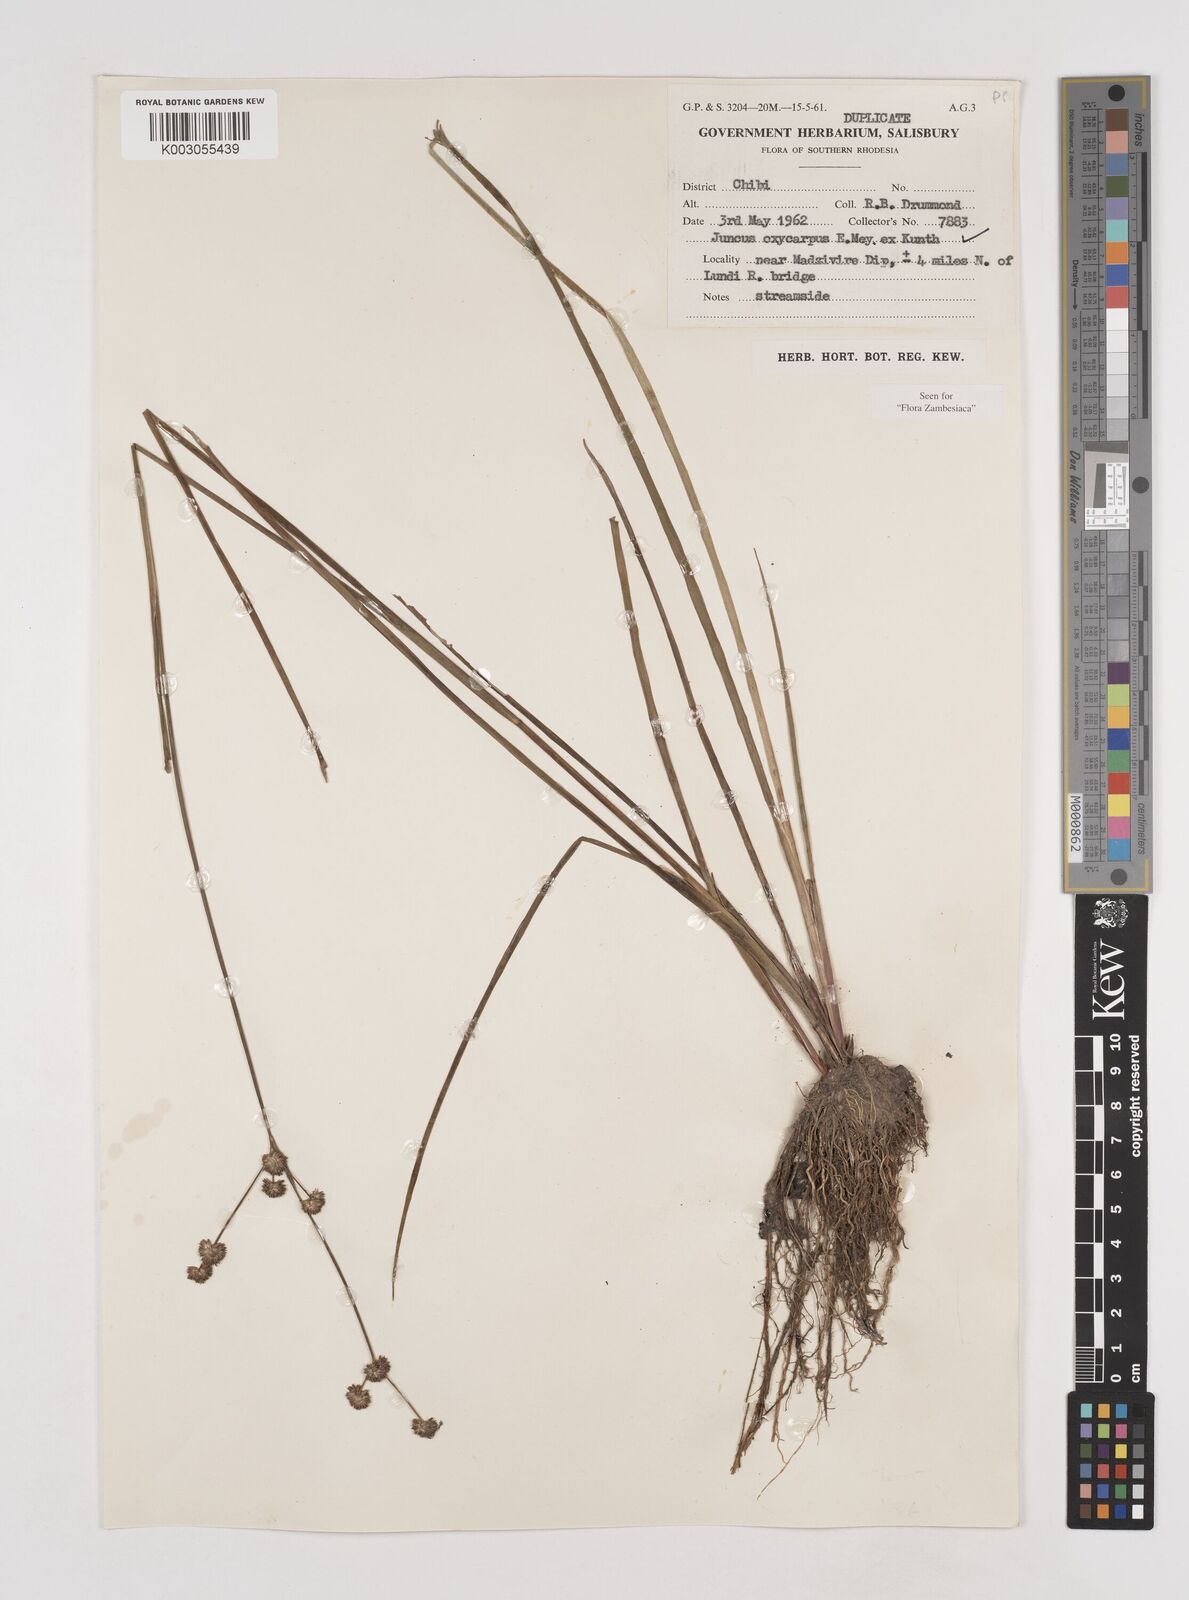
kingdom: Plantae
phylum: Tracheophyta
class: Liliopsida
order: Poales
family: Juncaceae
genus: Juncus
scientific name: Juncus oxycarpus
